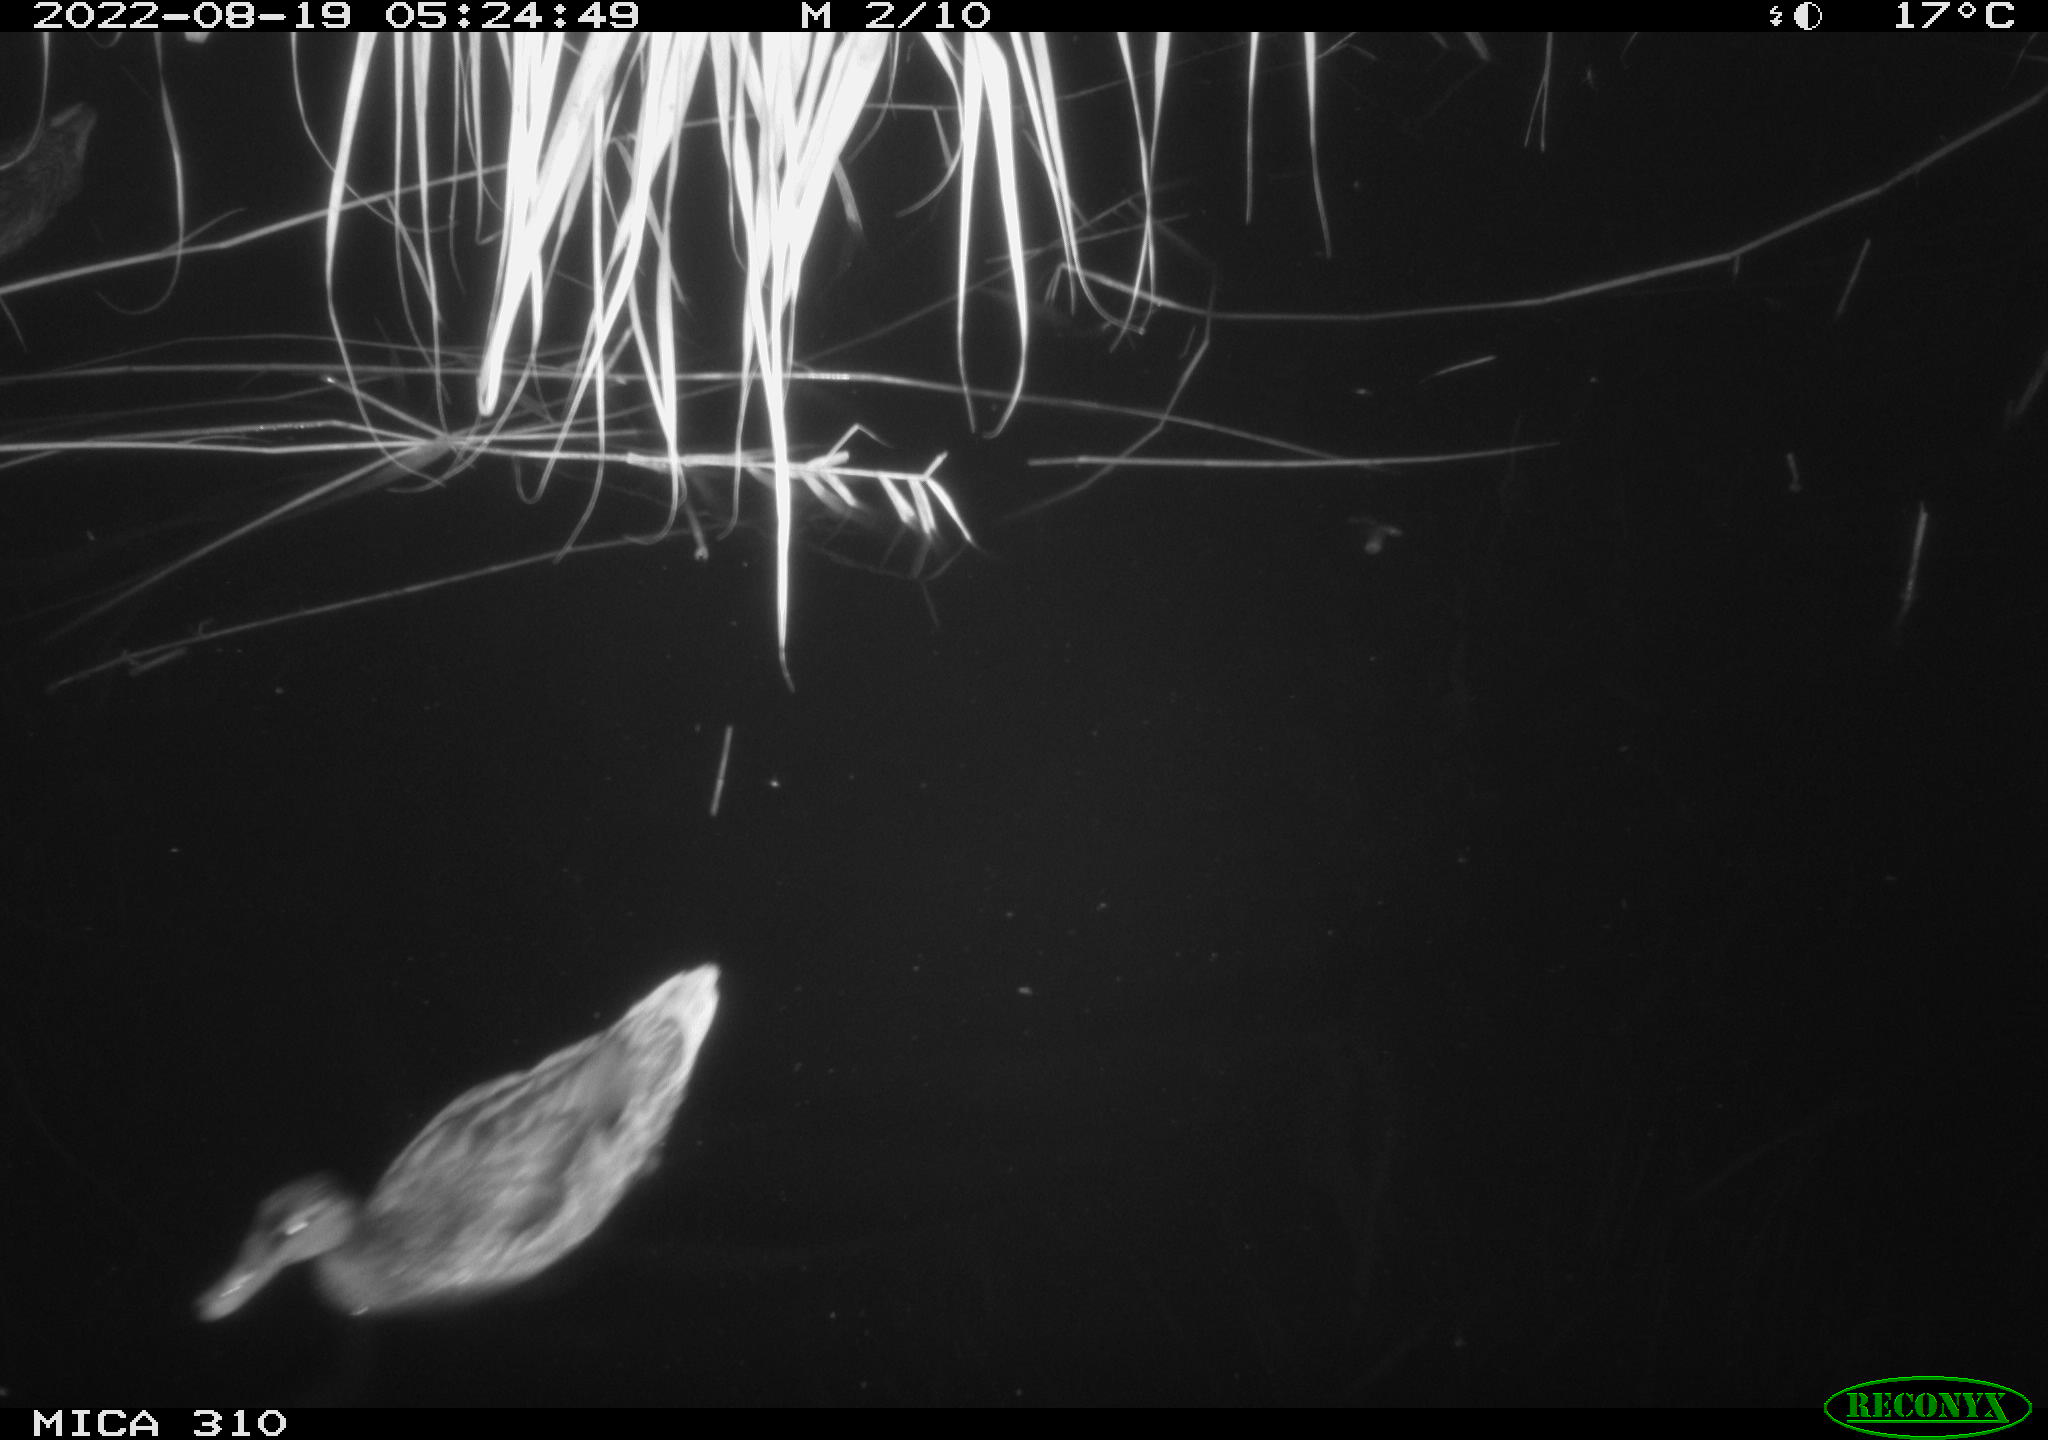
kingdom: Animalia
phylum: Chordata
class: Aves
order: Anseriformes
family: Anatidae
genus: Anas
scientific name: Anas platyrhynchos
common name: Mallard
